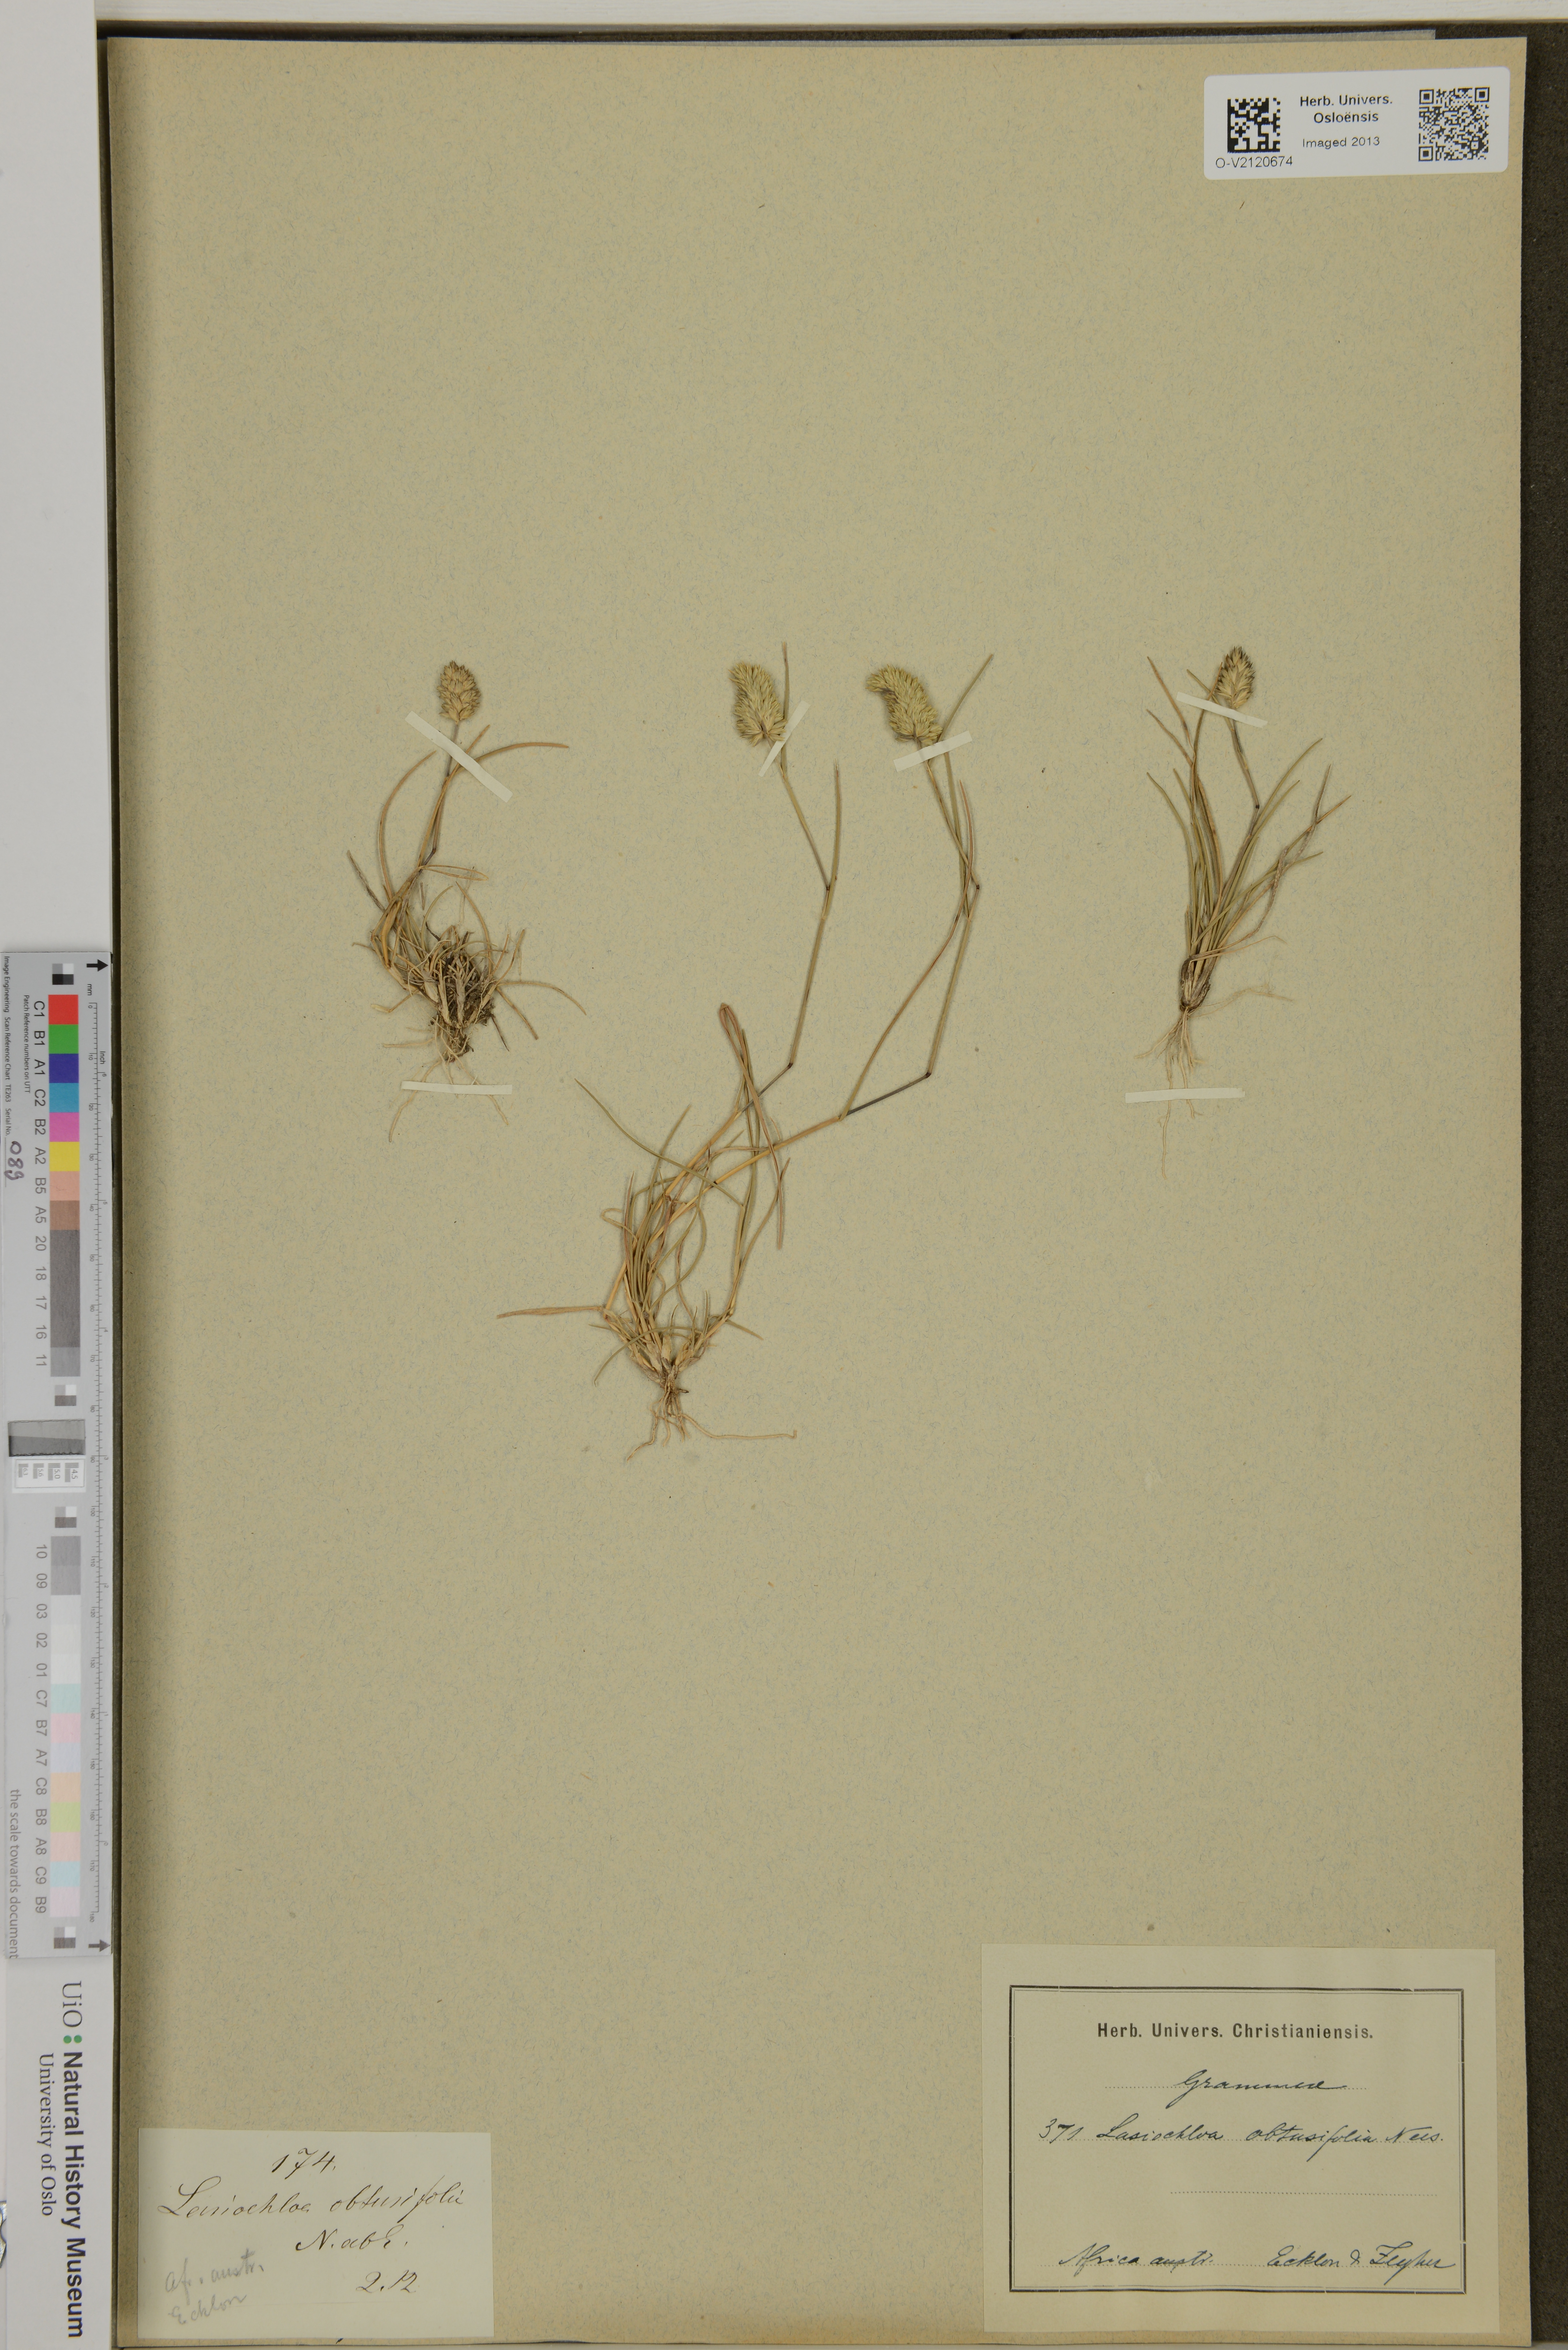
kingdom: Plantae
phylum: Tracheophyta
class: Liliopsida
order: Poales
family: Poaceae
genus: Tribolium
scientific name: Tribolium obtusifolium
